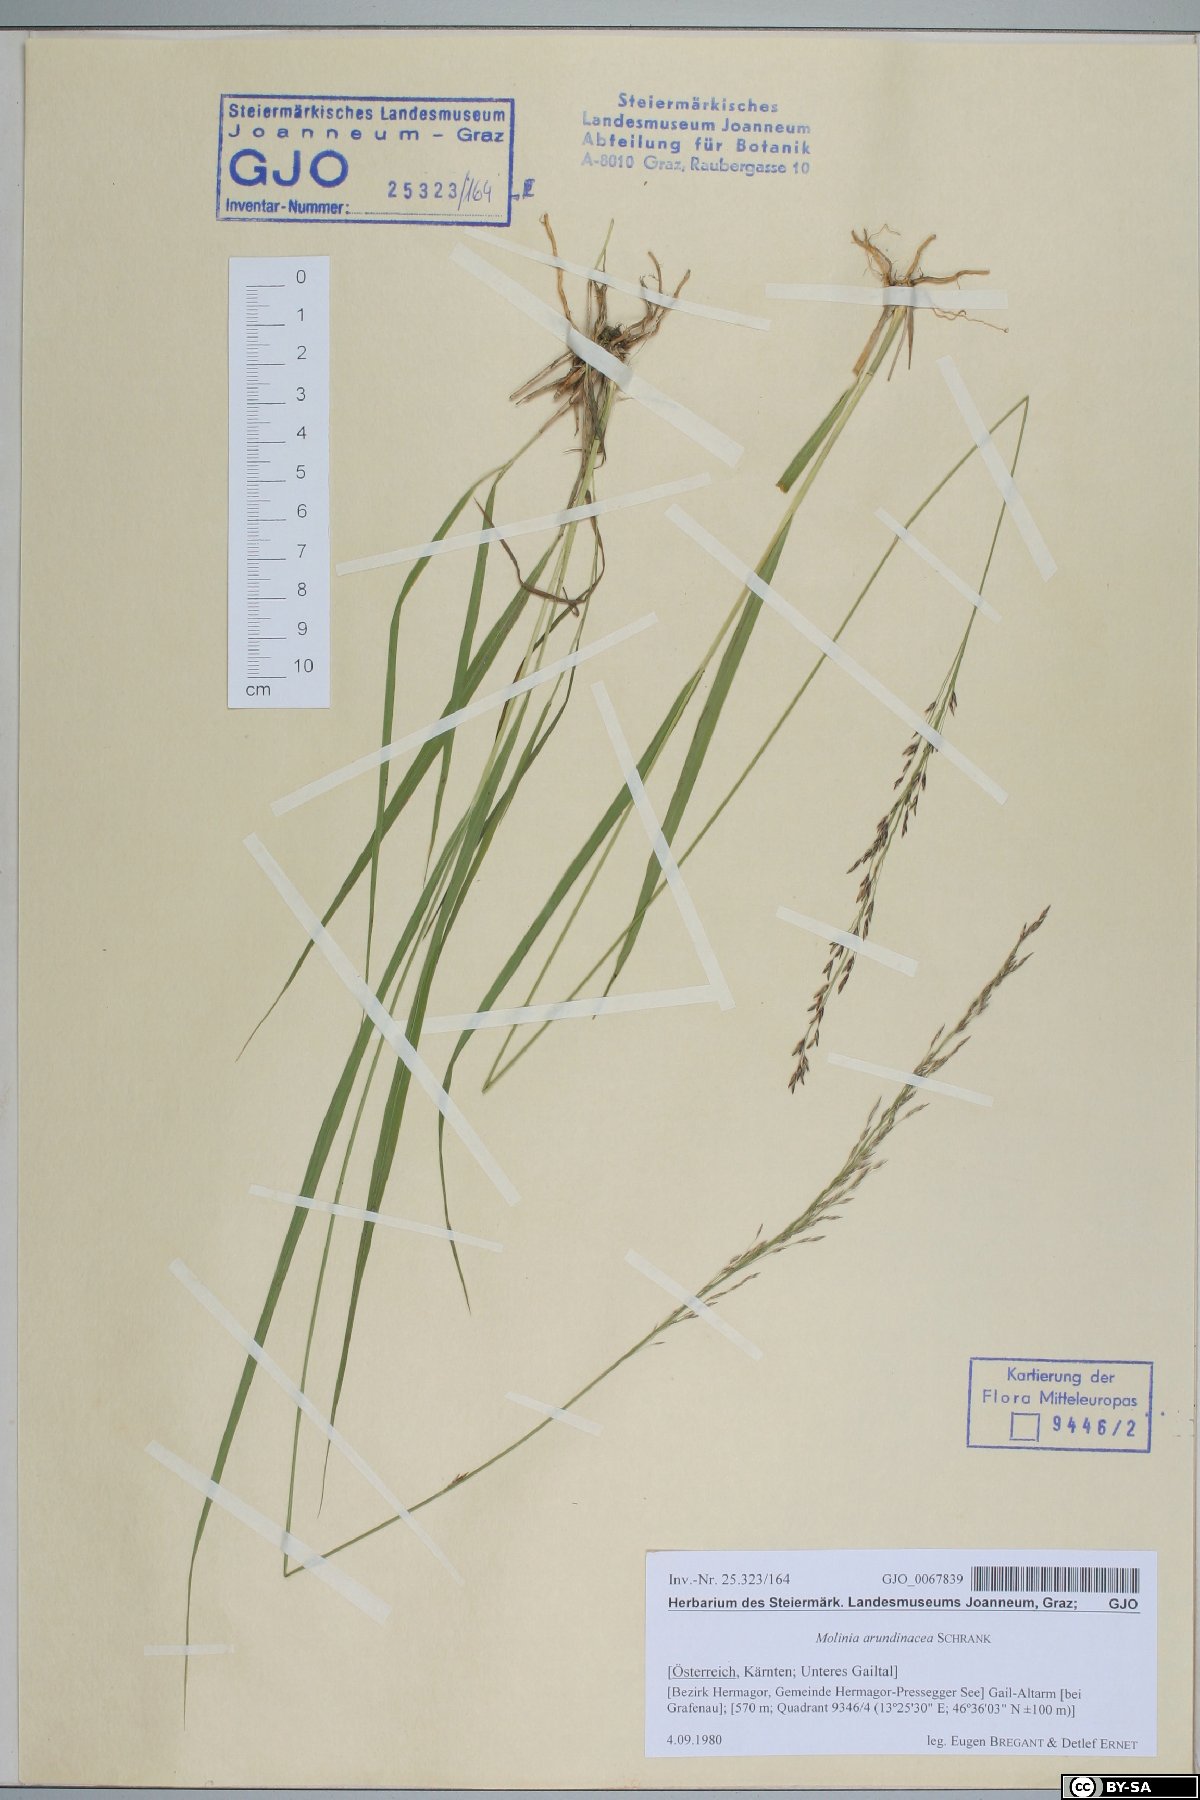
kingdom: Plantae
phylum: Tracheophyta
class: Liliopsida
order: Poales
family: Poaceae
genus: Molinia
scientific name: Molinia arundinacea
